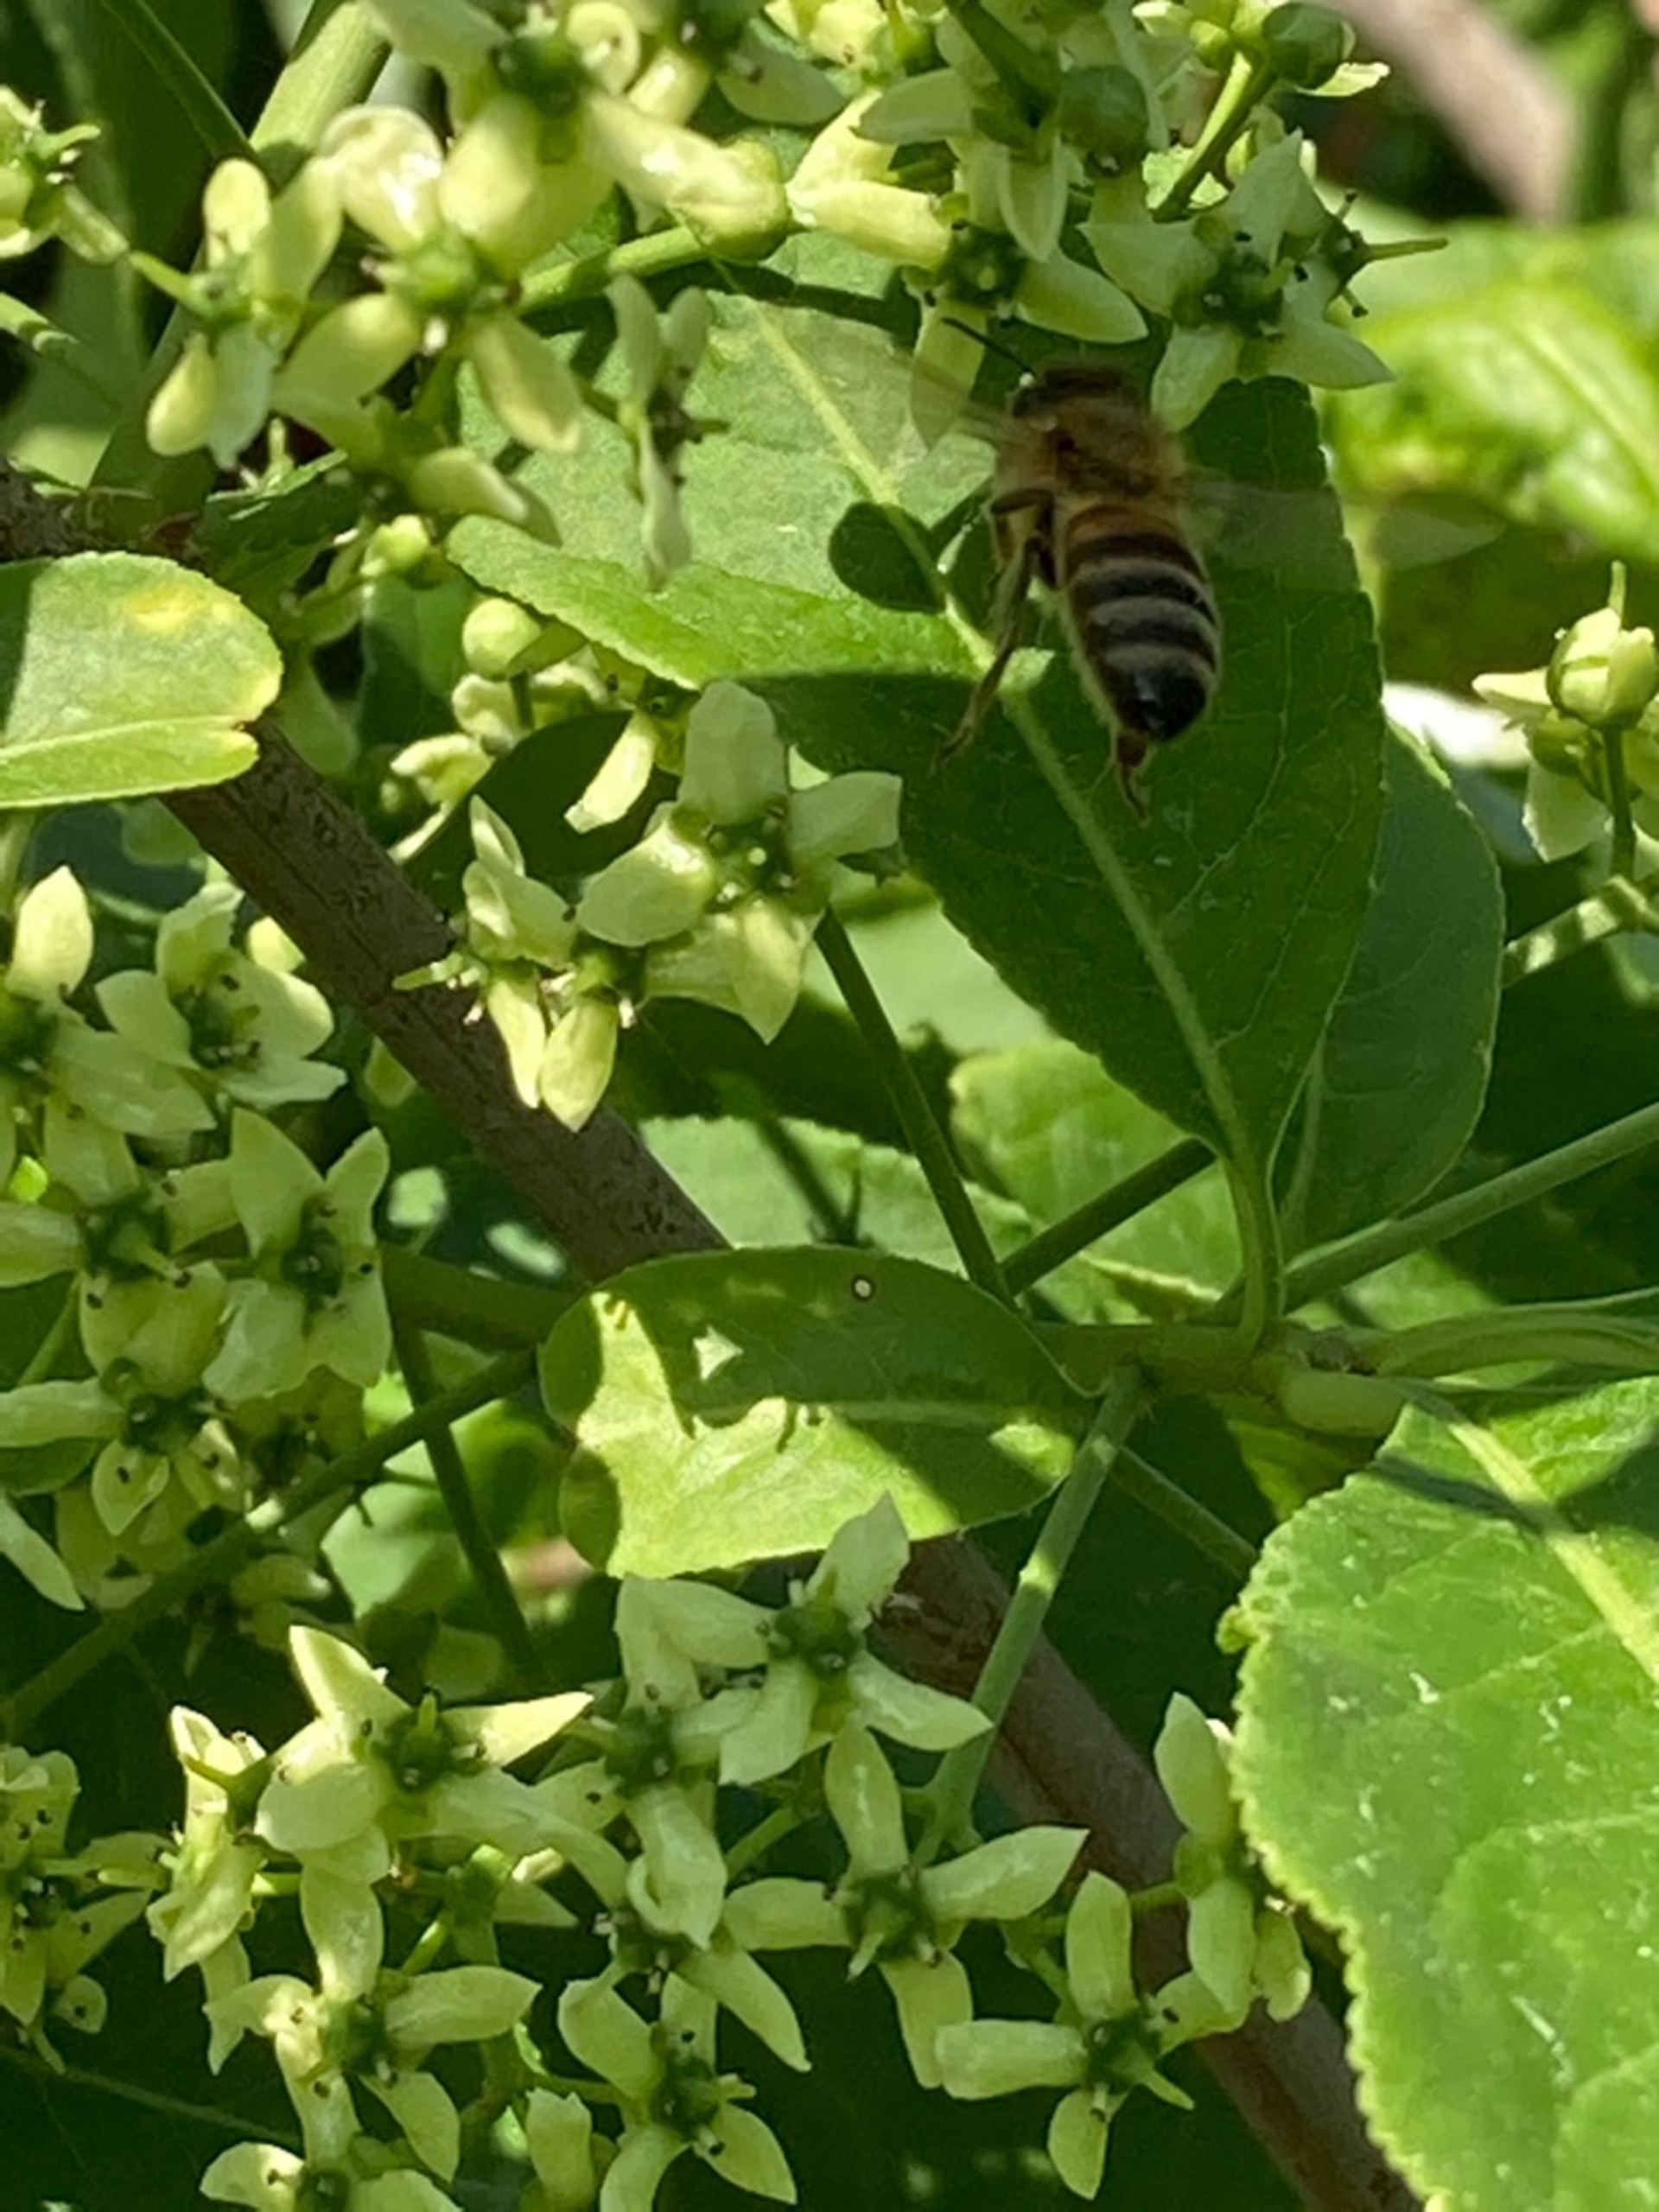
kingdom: Animalia
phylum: Arthropoda
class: Insecta
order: Hymenoptera
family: Apidae
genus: Apis
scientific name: Apis
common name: Honningbier
